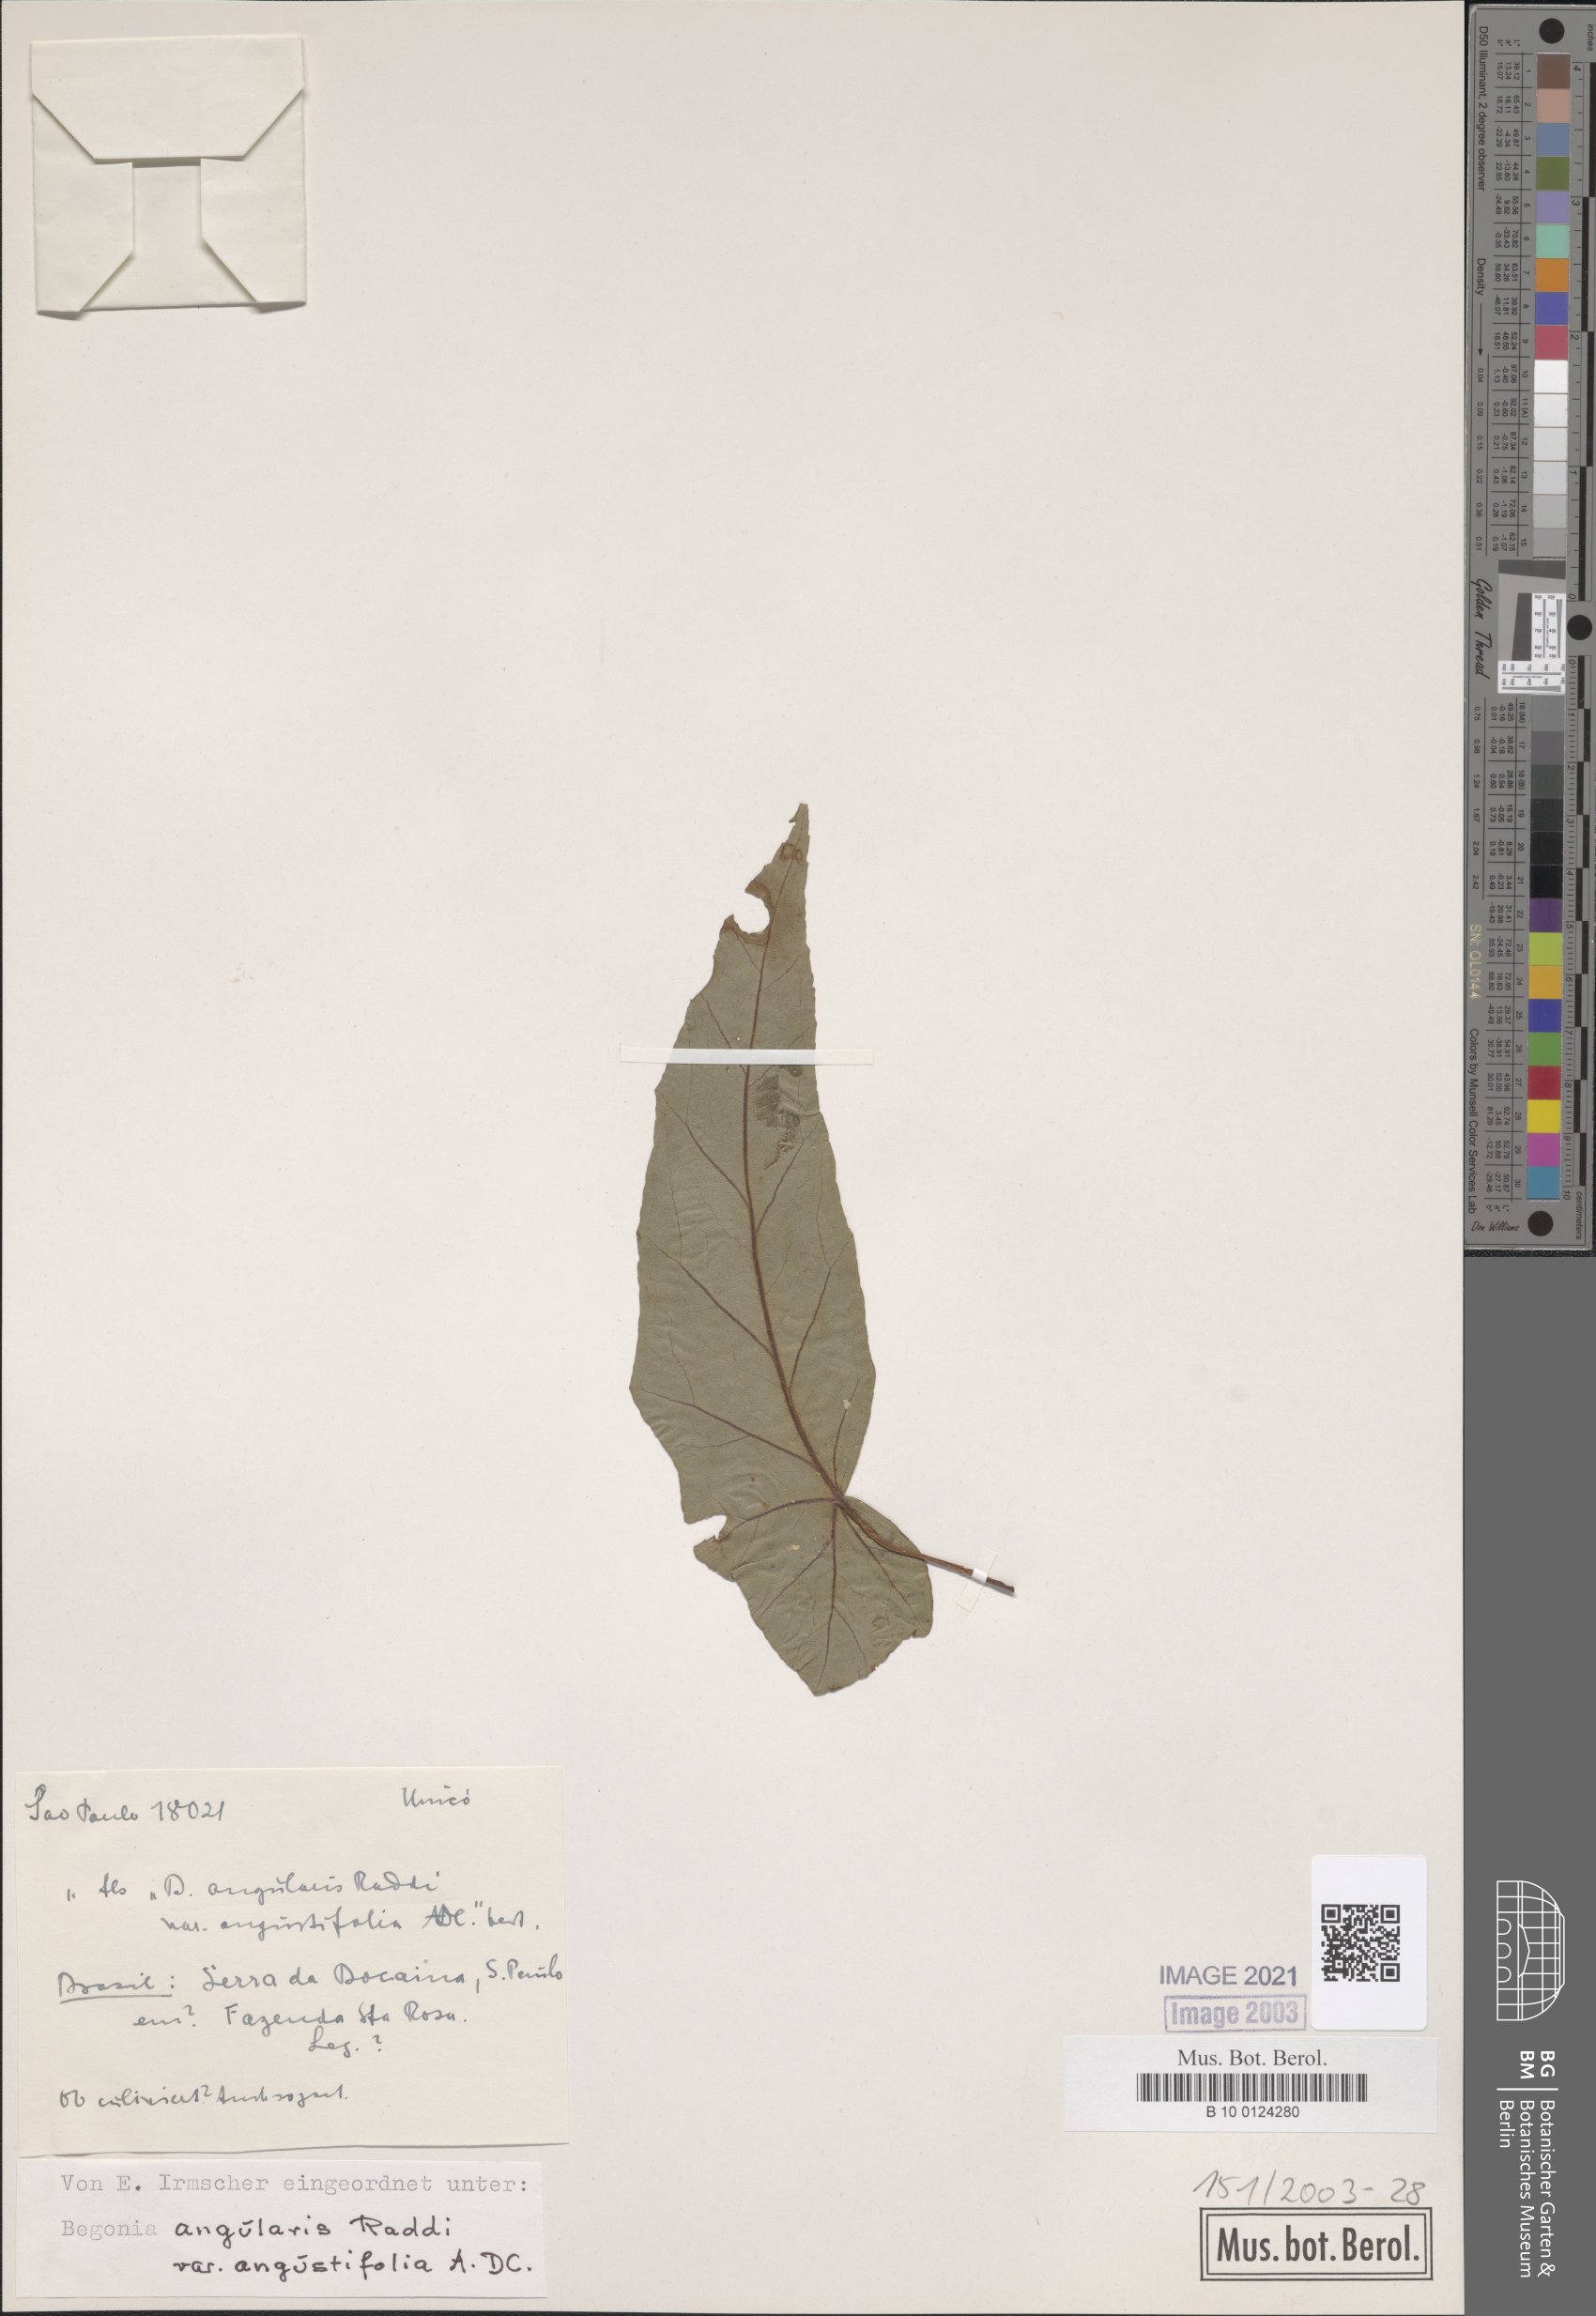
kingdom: Plantae
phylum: Tracheophyta
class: Magnoliopsida
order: Cucurbitales
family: Begoniaceae
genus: Begonia
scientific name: Begonia angularis
